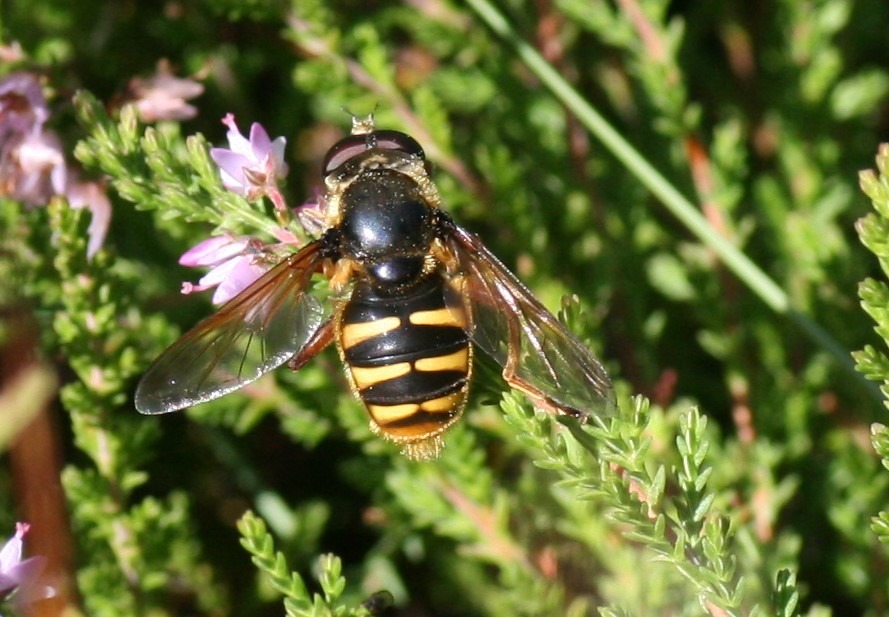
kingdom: Animalia
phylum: Arthropoda
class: Insecta
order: Diptera
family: Syrphidae
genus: Sericomyia
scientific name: Sericomyia silentis
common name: Tørve-silkesvirreflue
